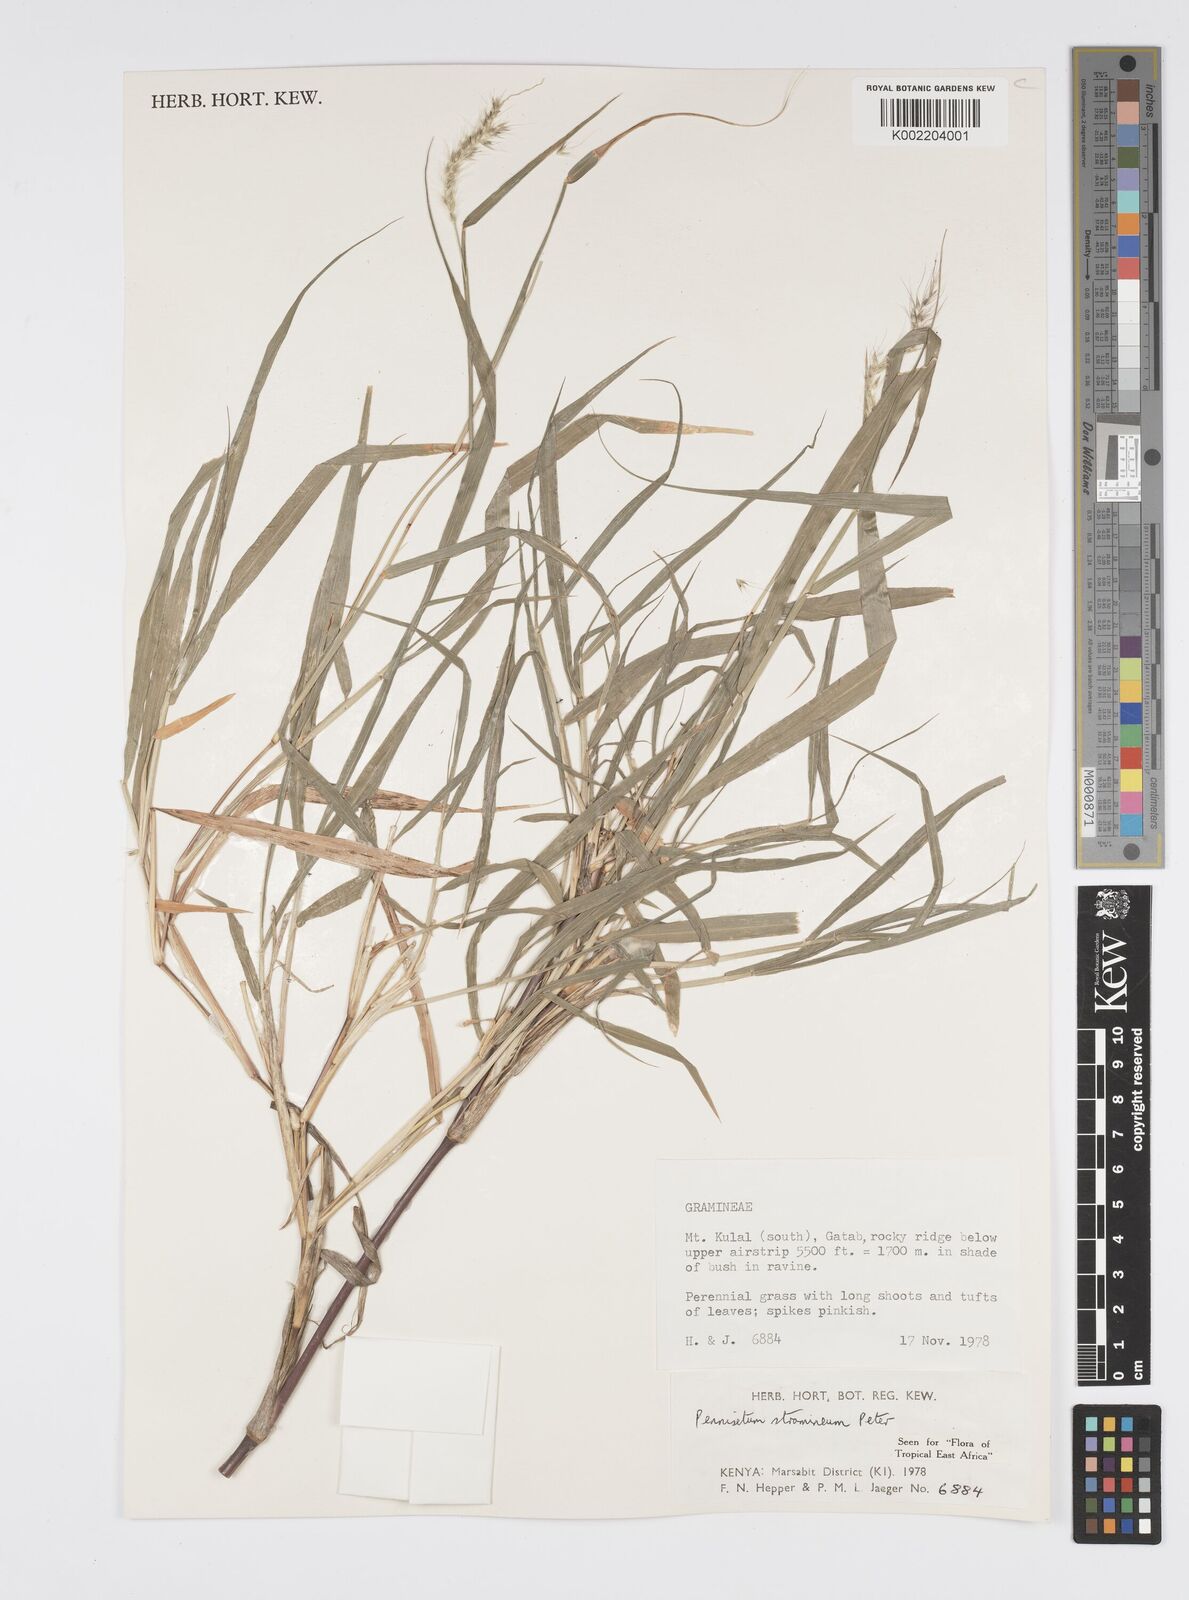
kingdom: Plantae
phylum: Tracheophyta
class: Liliopsida
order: Poales
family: Poaceae
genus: Cenchrus
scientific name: Cenchrus stramineus
